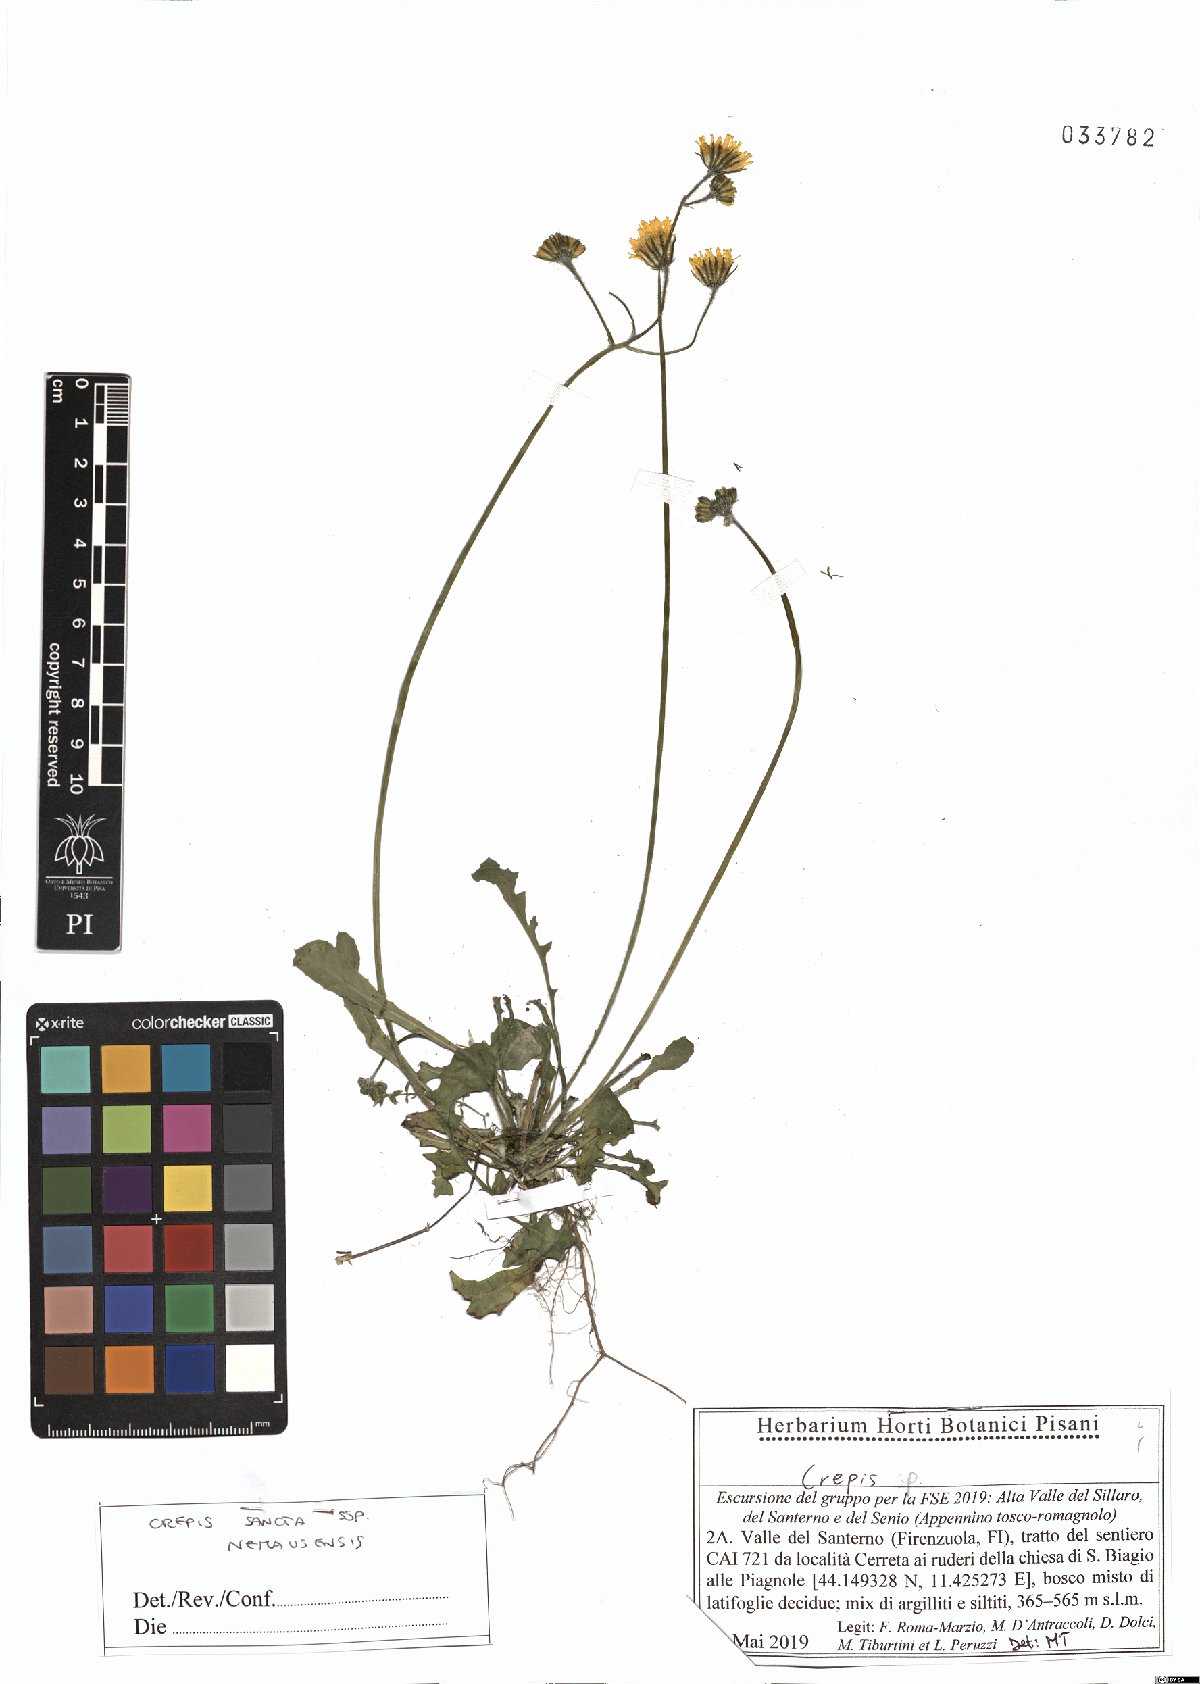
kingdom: Plantae
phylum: Tracheophyta
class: Magnoliopsida
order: Asterales
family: Asteraceae
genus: Crepis
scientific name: Crepis sancta
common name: Hawk's-beard
